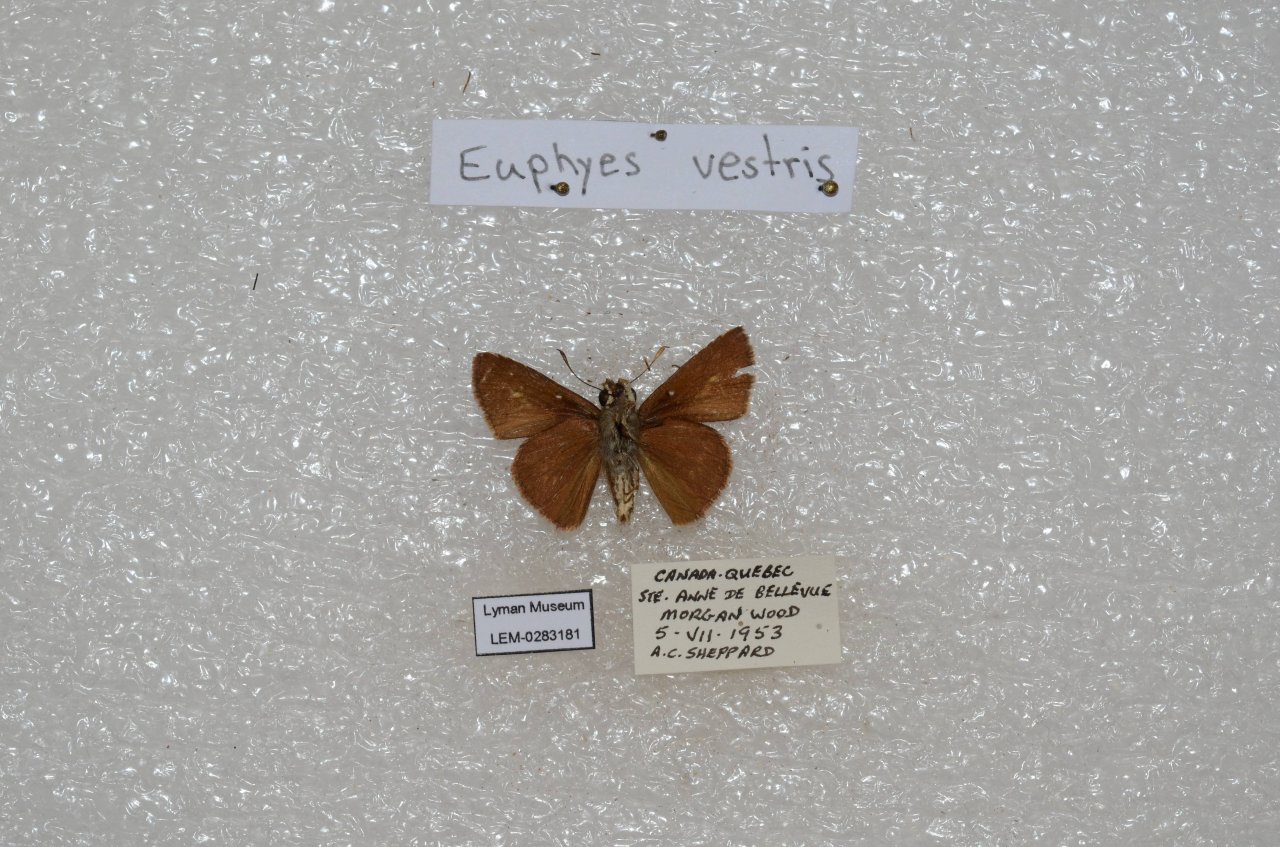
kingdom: Animalia
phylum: Arthropoda
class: Insecta
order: Lepidoptera
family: Hesperiidae
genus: Euphyes
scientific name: Euphyes vestris
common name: Dun Skipper
